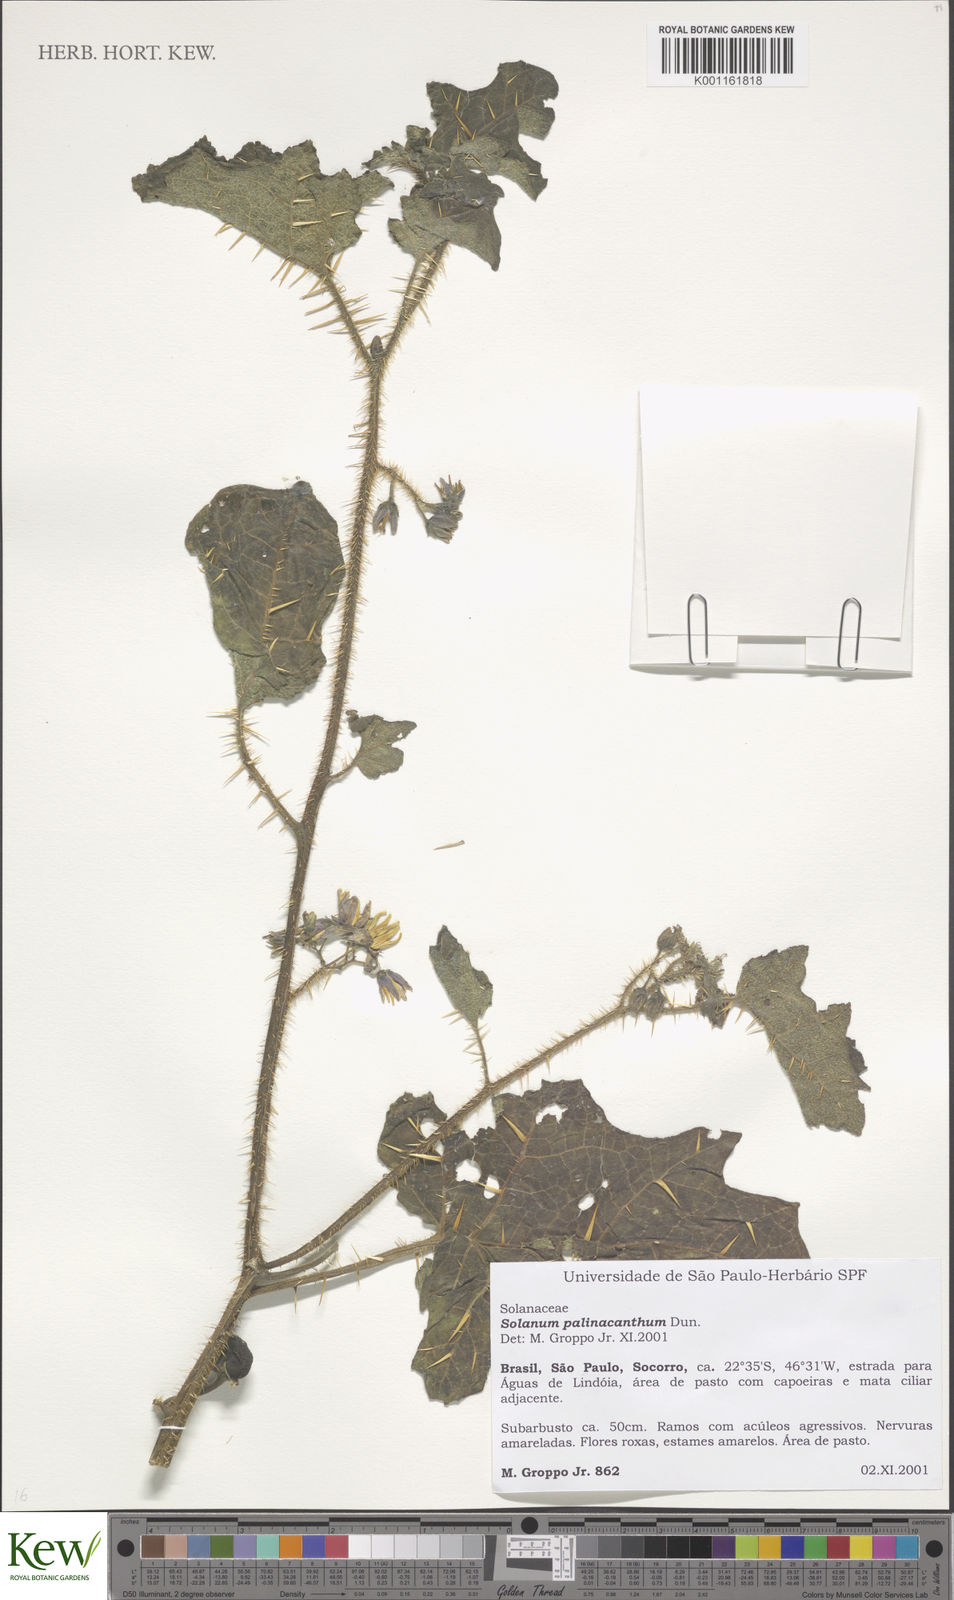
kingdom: Plantae
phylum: Tracheophyta
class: Magnoliopsida
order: Solanales
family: Solanaceae
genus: Solanum
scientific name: Solanum palinacanthum
